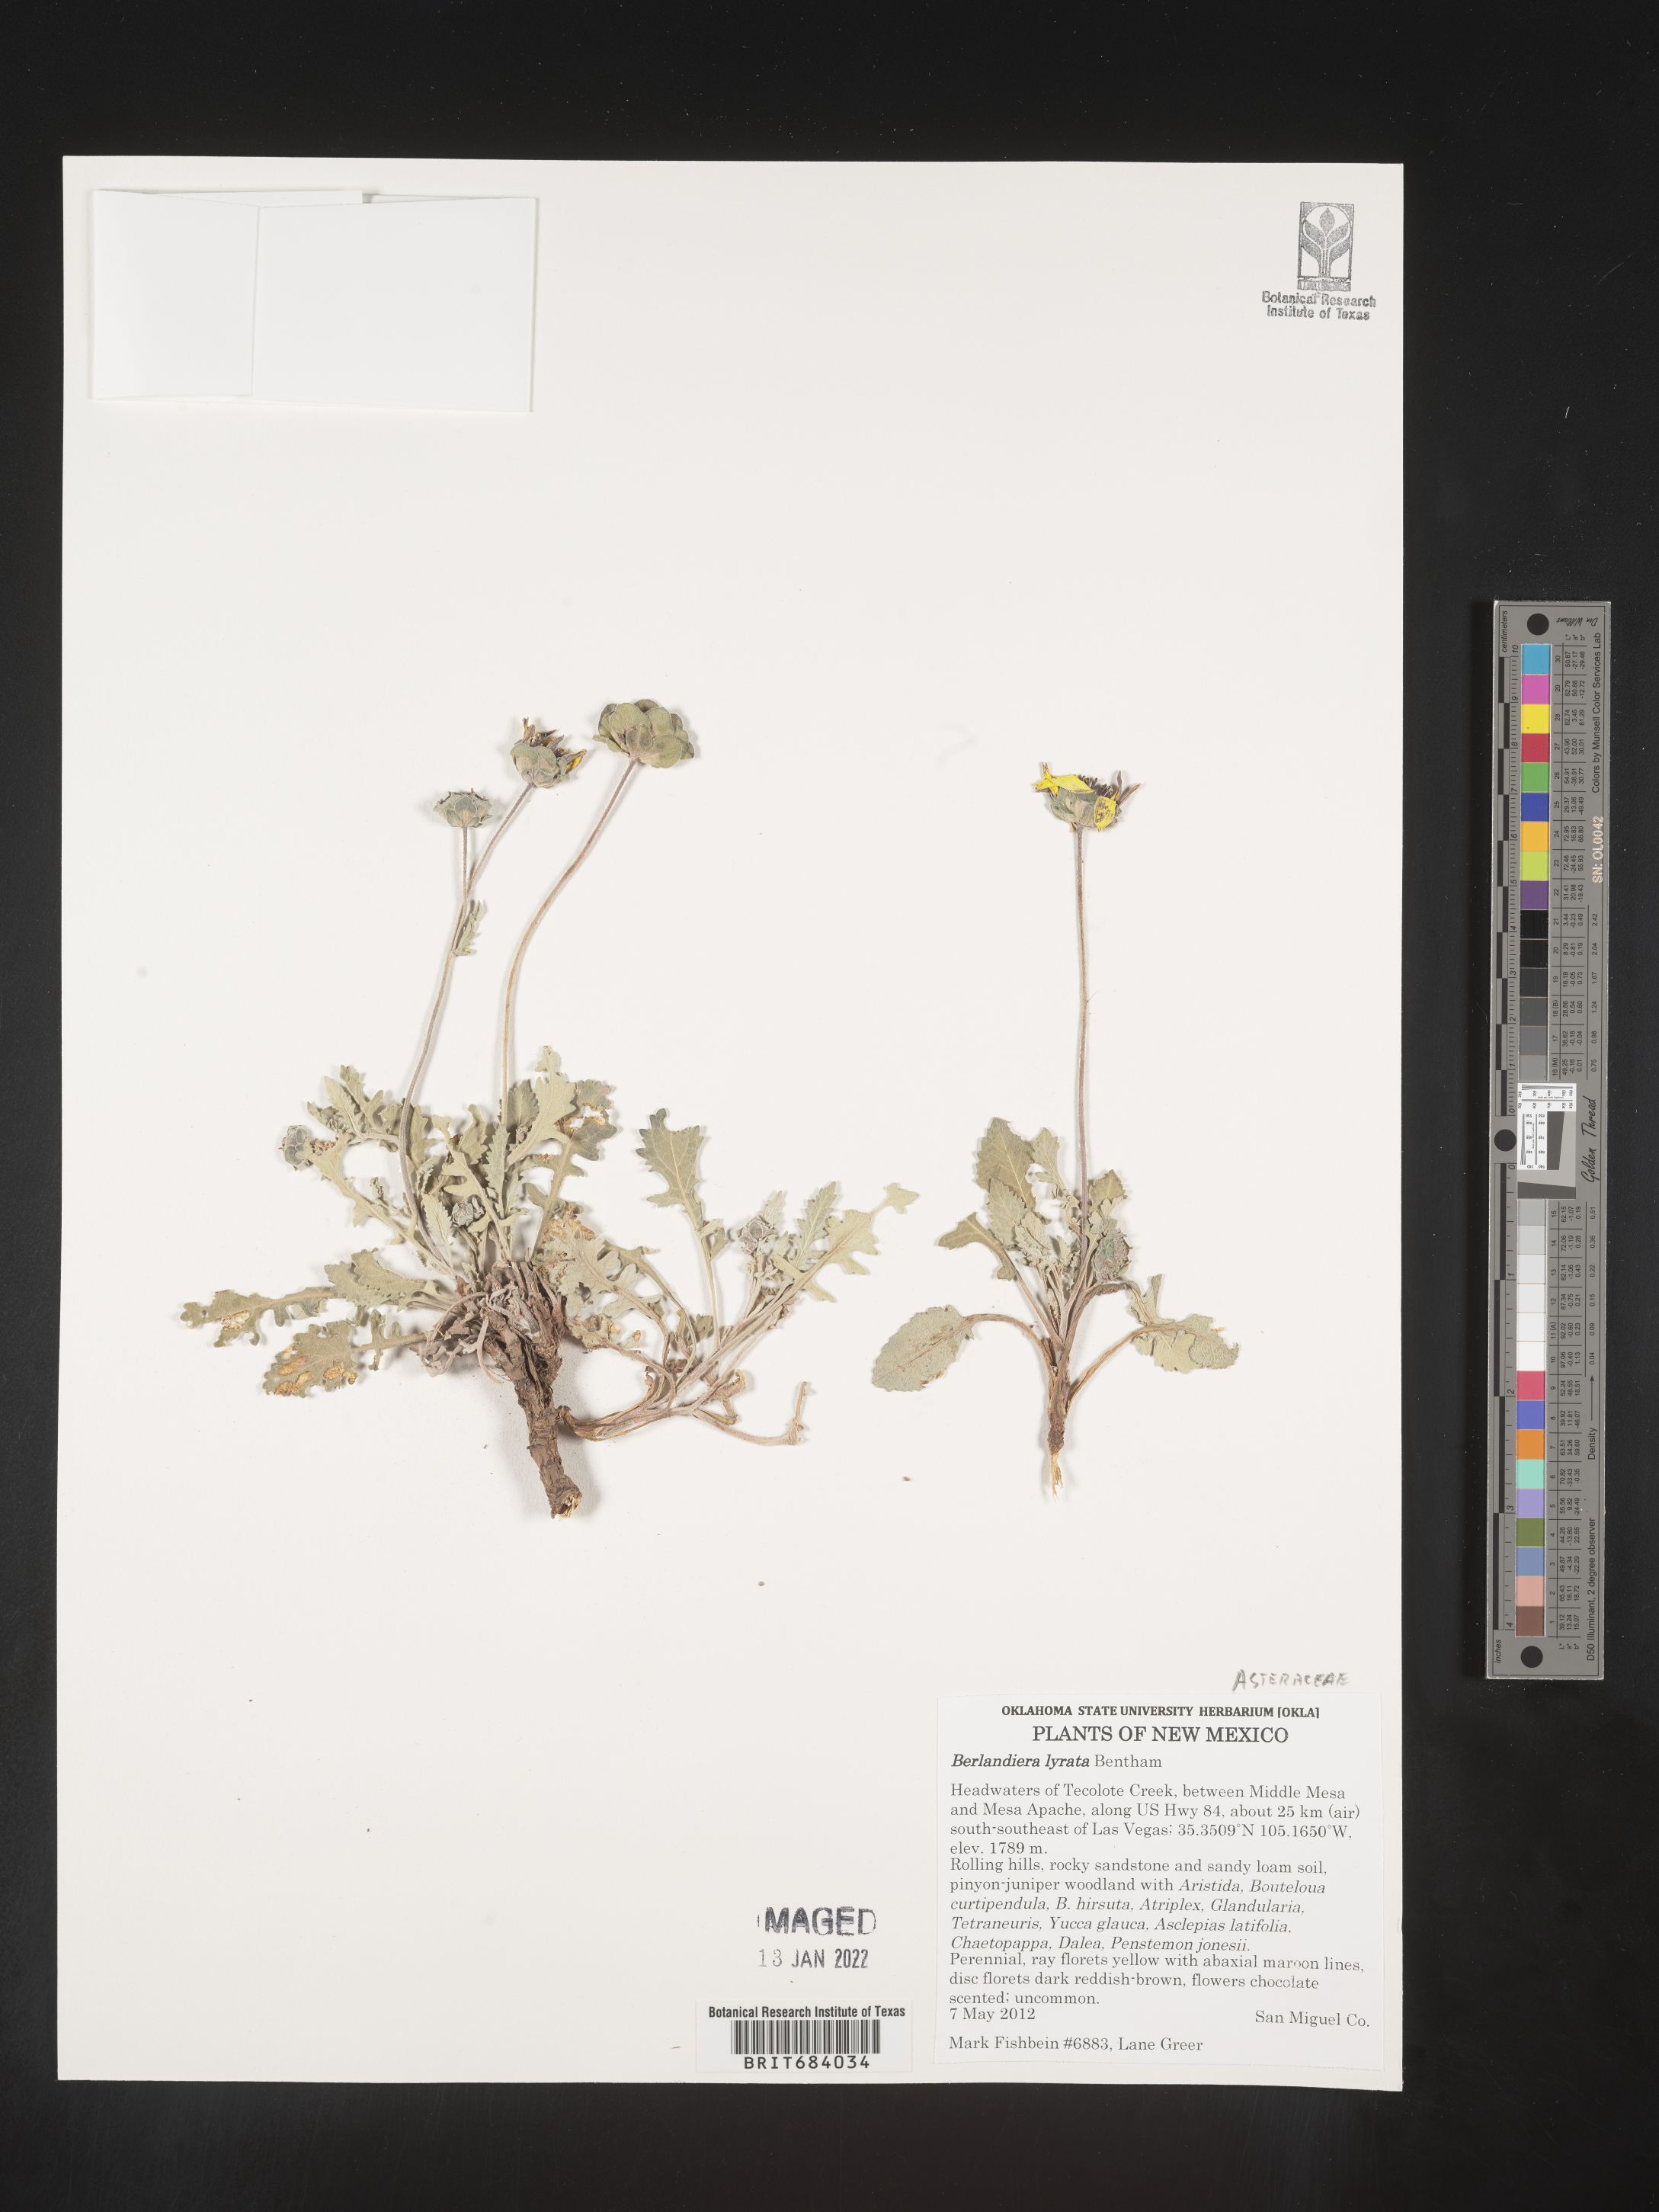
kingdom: Plantae
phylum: Tracheophyta
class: Magnoliopsida
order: Asterales
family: Asteraceae
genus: Berlandiera
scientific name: Berlandiera lyrata
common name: Chocolate-flower
